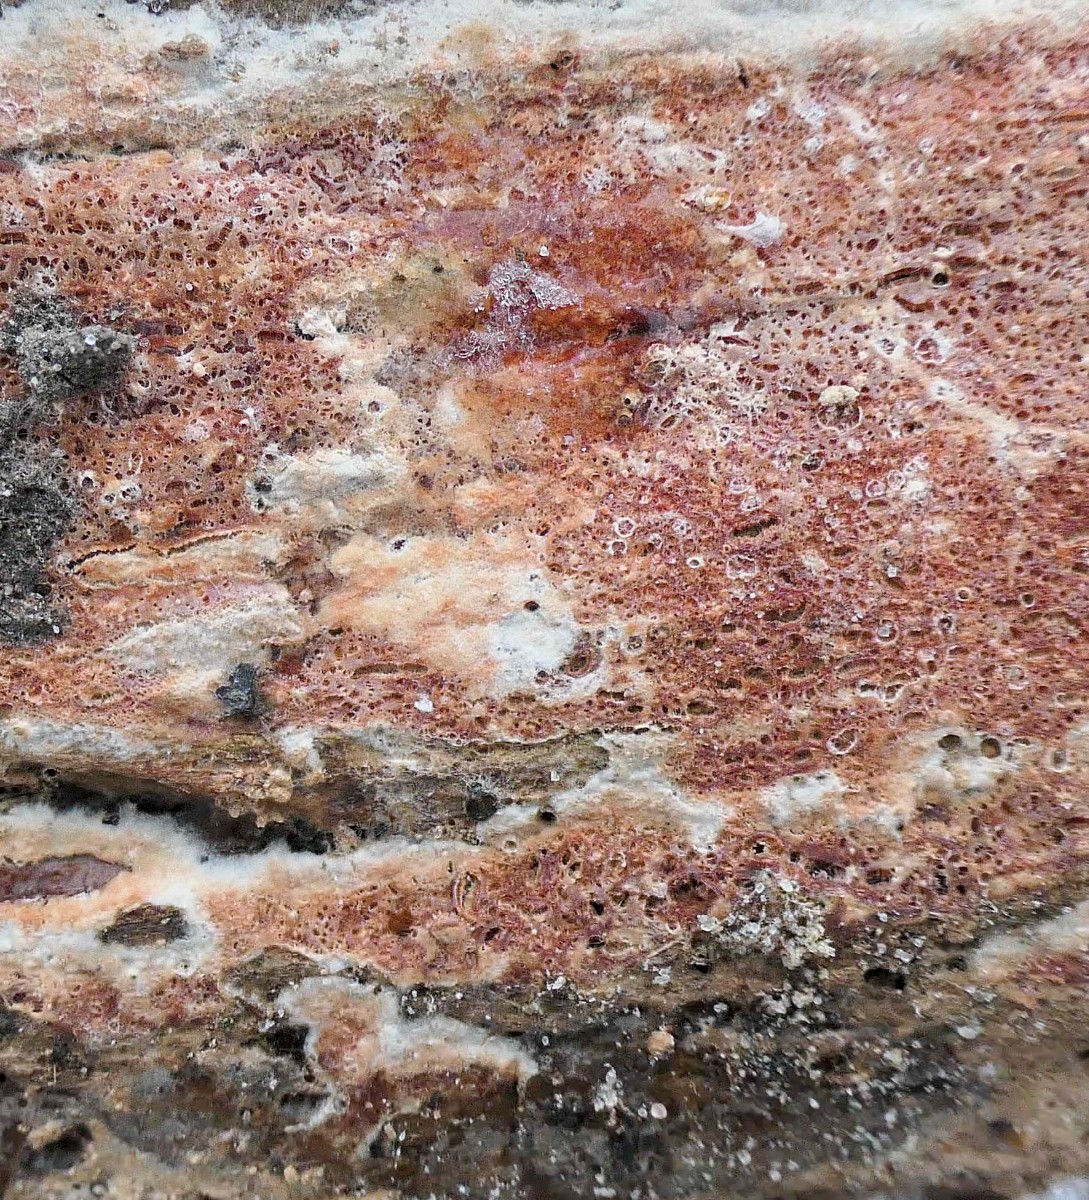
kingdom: Fungi
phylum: Basidiomycota
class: Agaricomycetes
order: Polyporales
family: Irpicaceae
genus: Ceriporia
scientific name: Ceriporia
